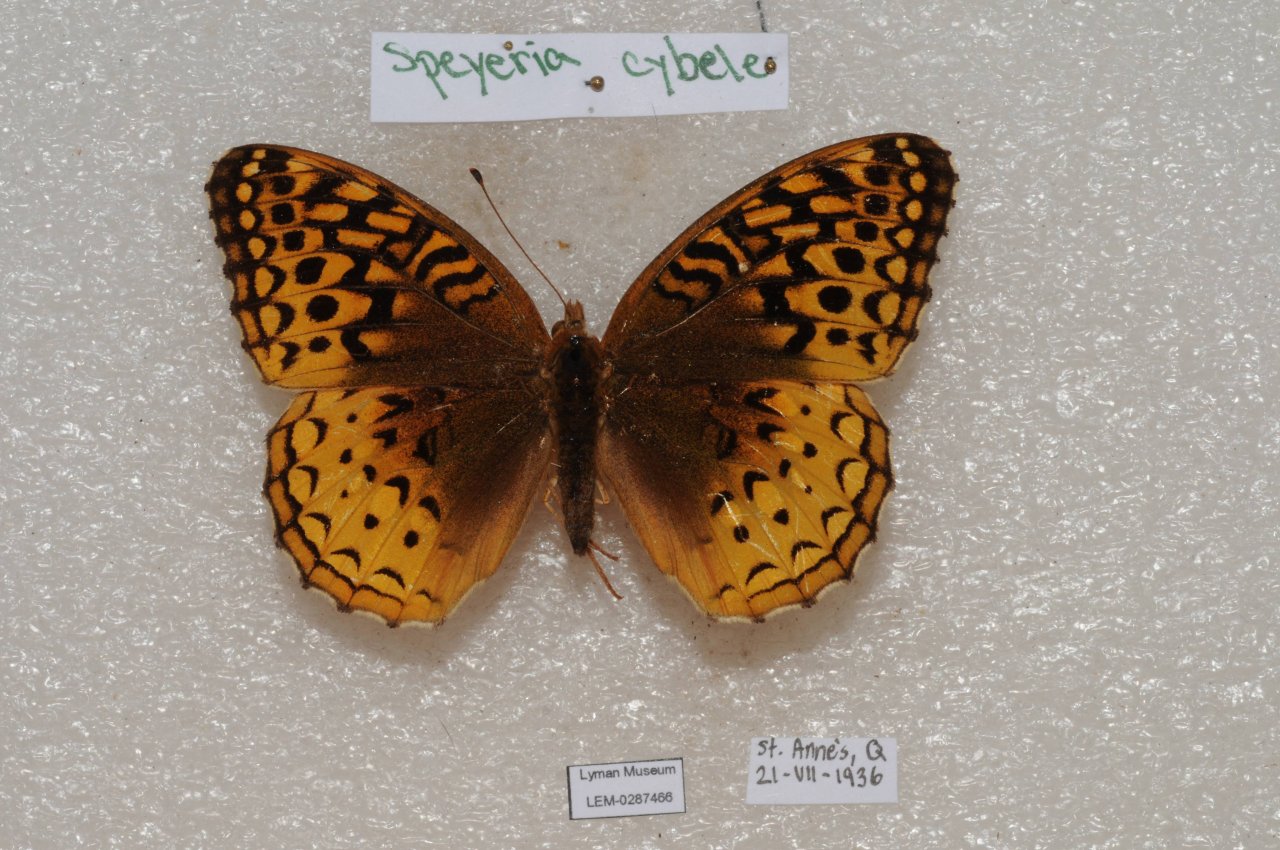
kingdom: Animalia
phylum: Arthropoda
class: Insecta
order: Lepidoptera
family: Nymphalidae
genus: Speyeria
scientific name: Speyeria cybele
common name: Great Spangled Fritillary
